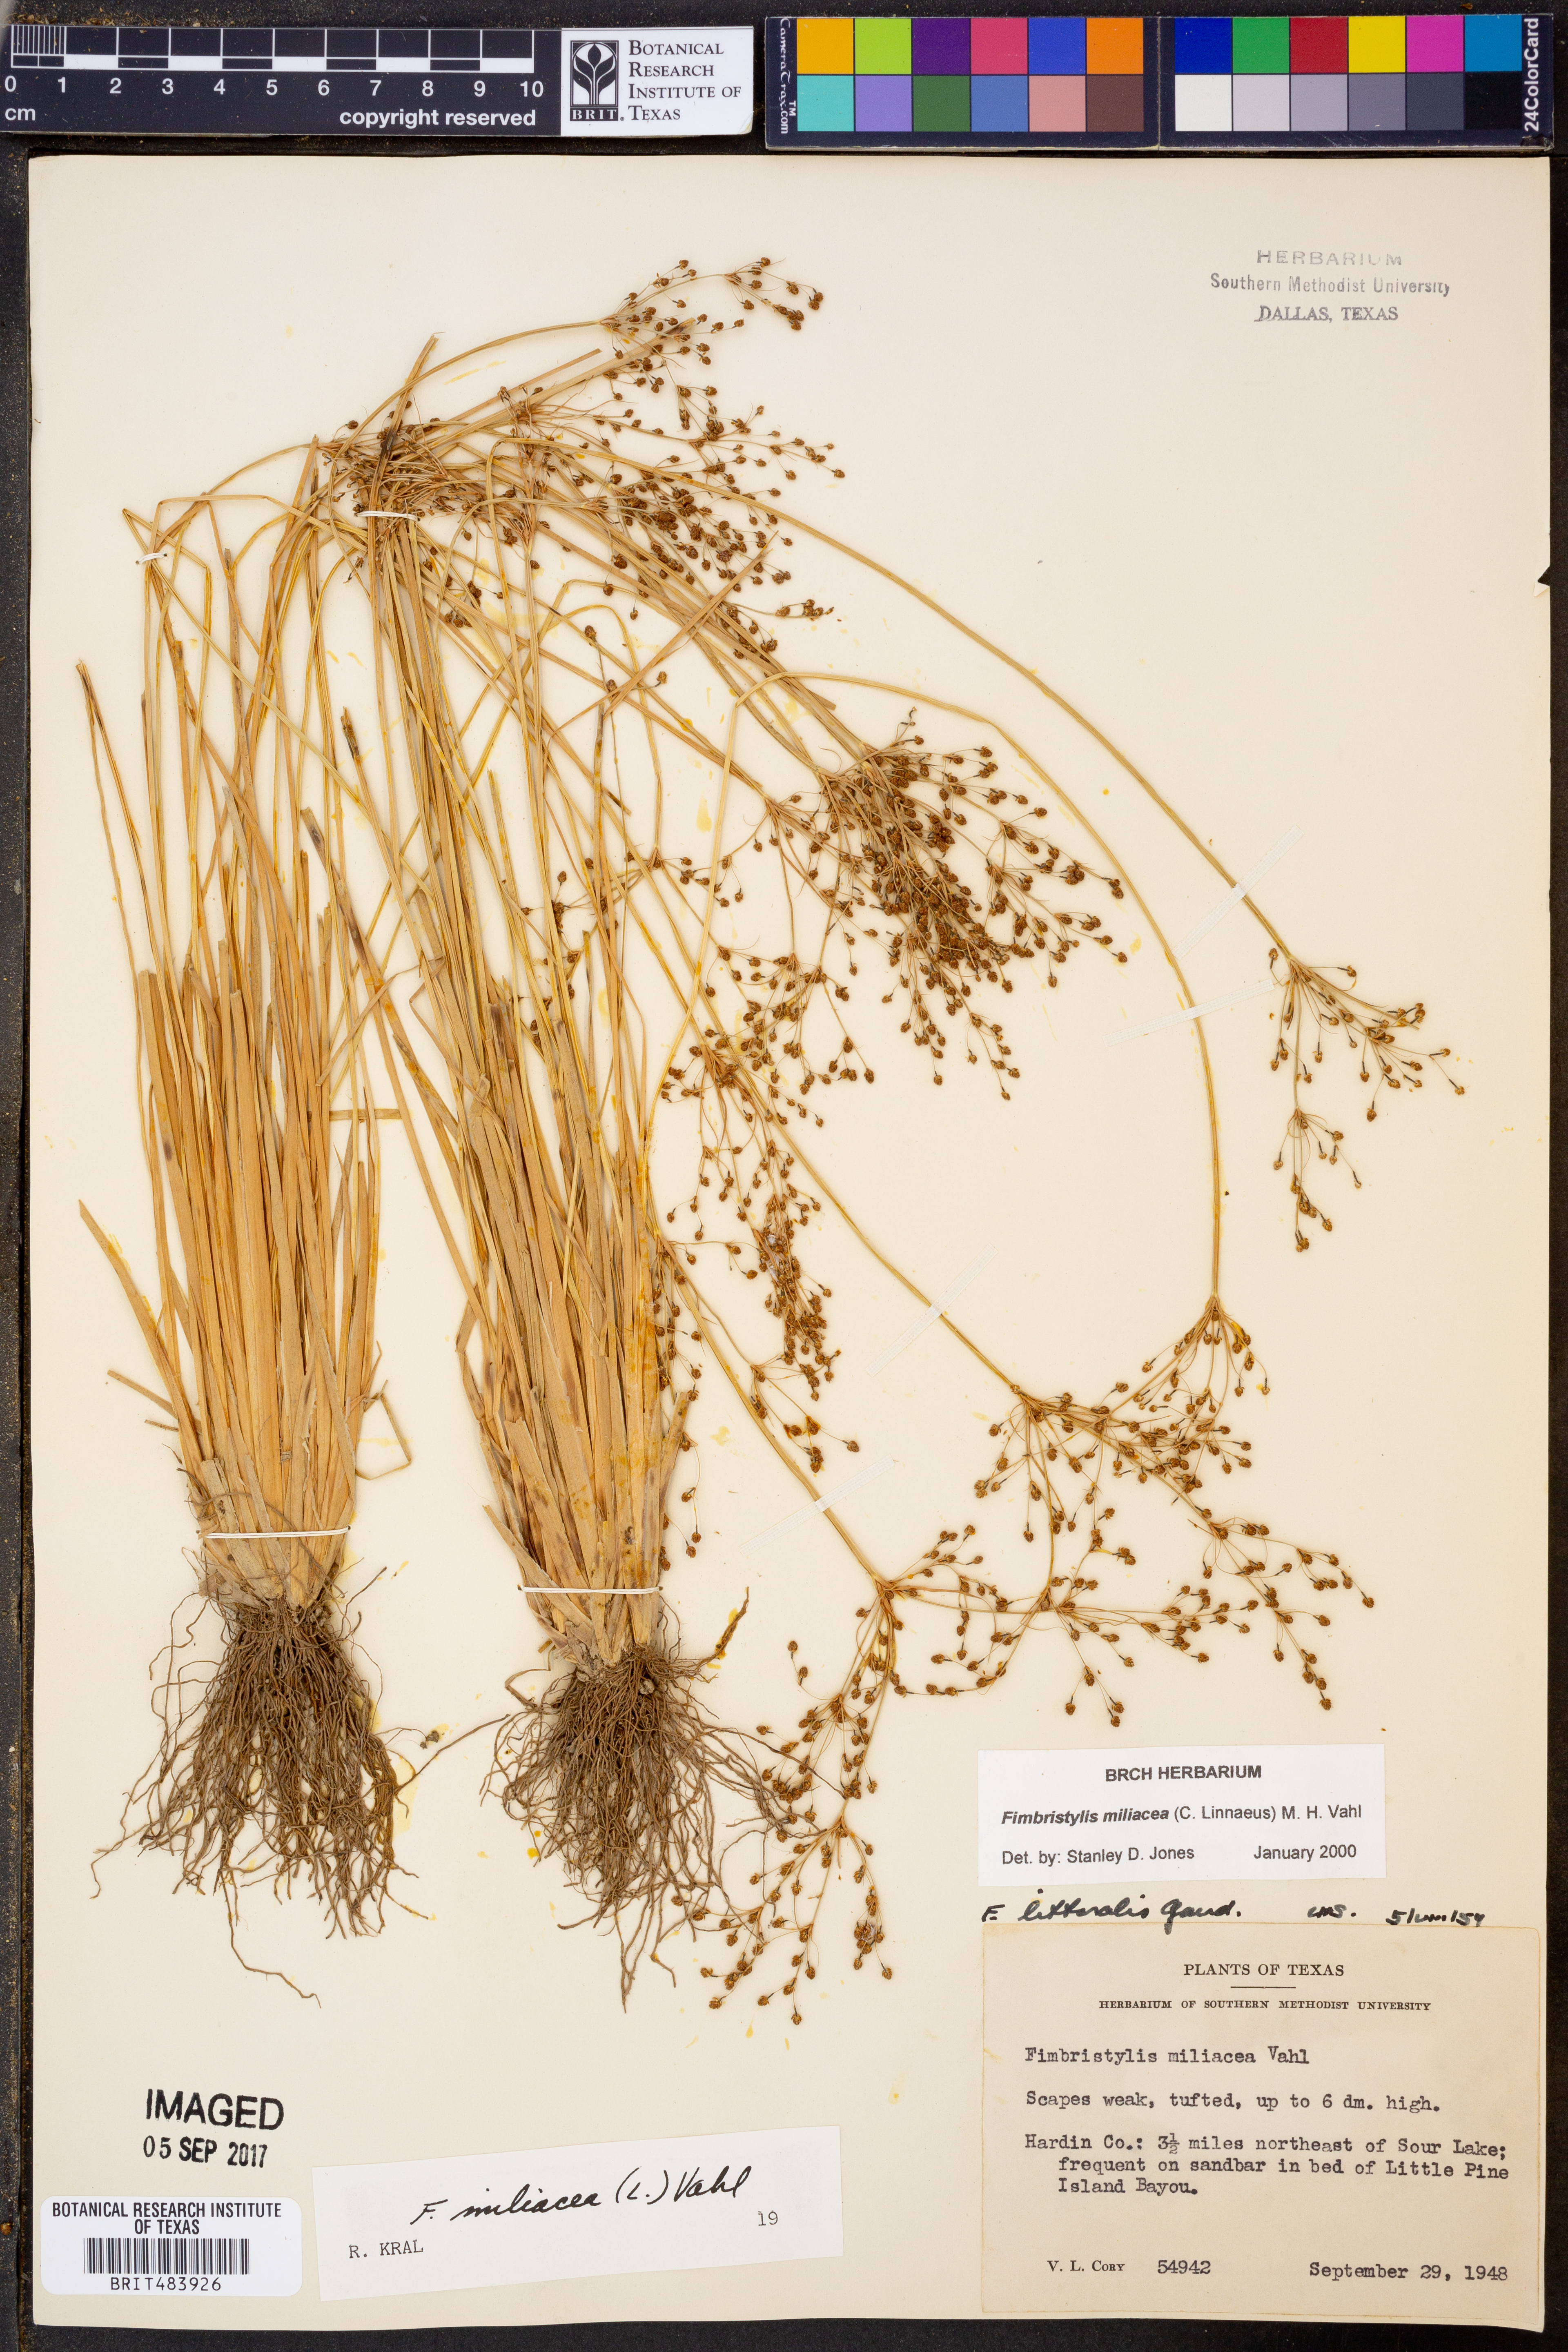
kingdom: Plantae
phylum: Tracheophyta
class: Liliopsida
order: Poales
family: Cyperaceae
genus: Fimbristylis
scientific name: Fimbristylis quinquangularis
